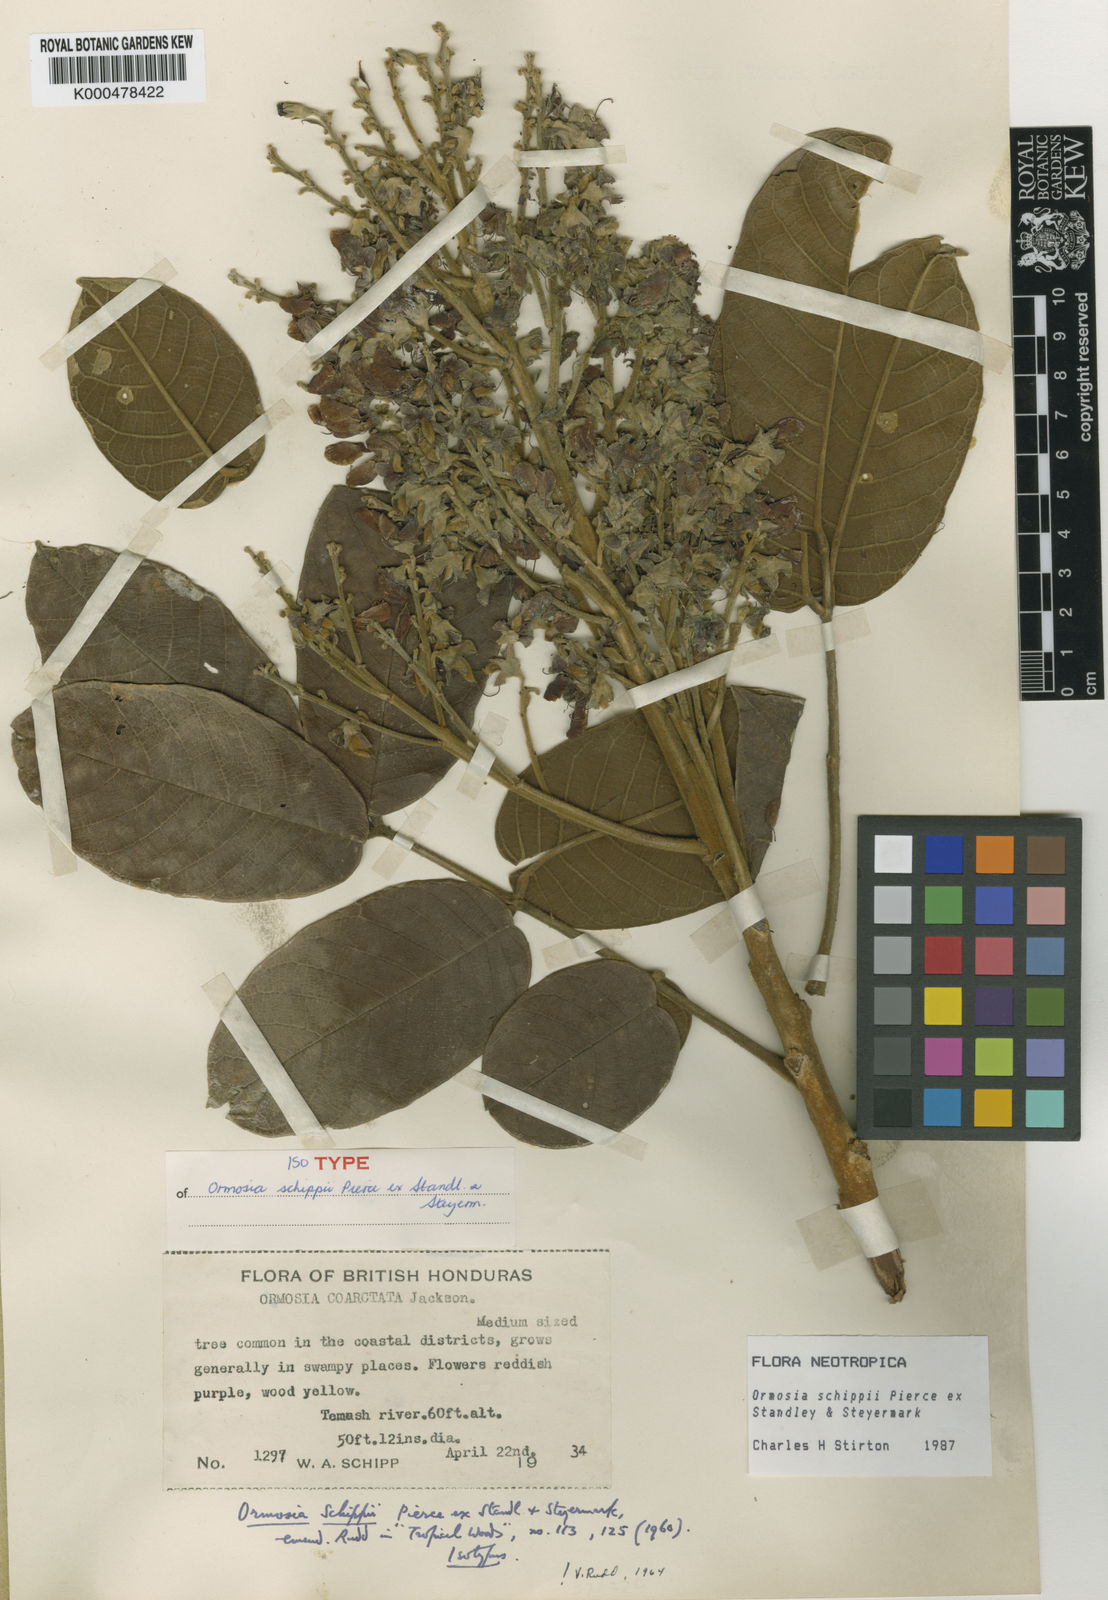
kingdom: Plantae
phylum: Tracheophyta
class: Magnoliopsida
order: Fabales
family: Fabaceae
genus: Ormosia
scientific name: Ormosia velutina
